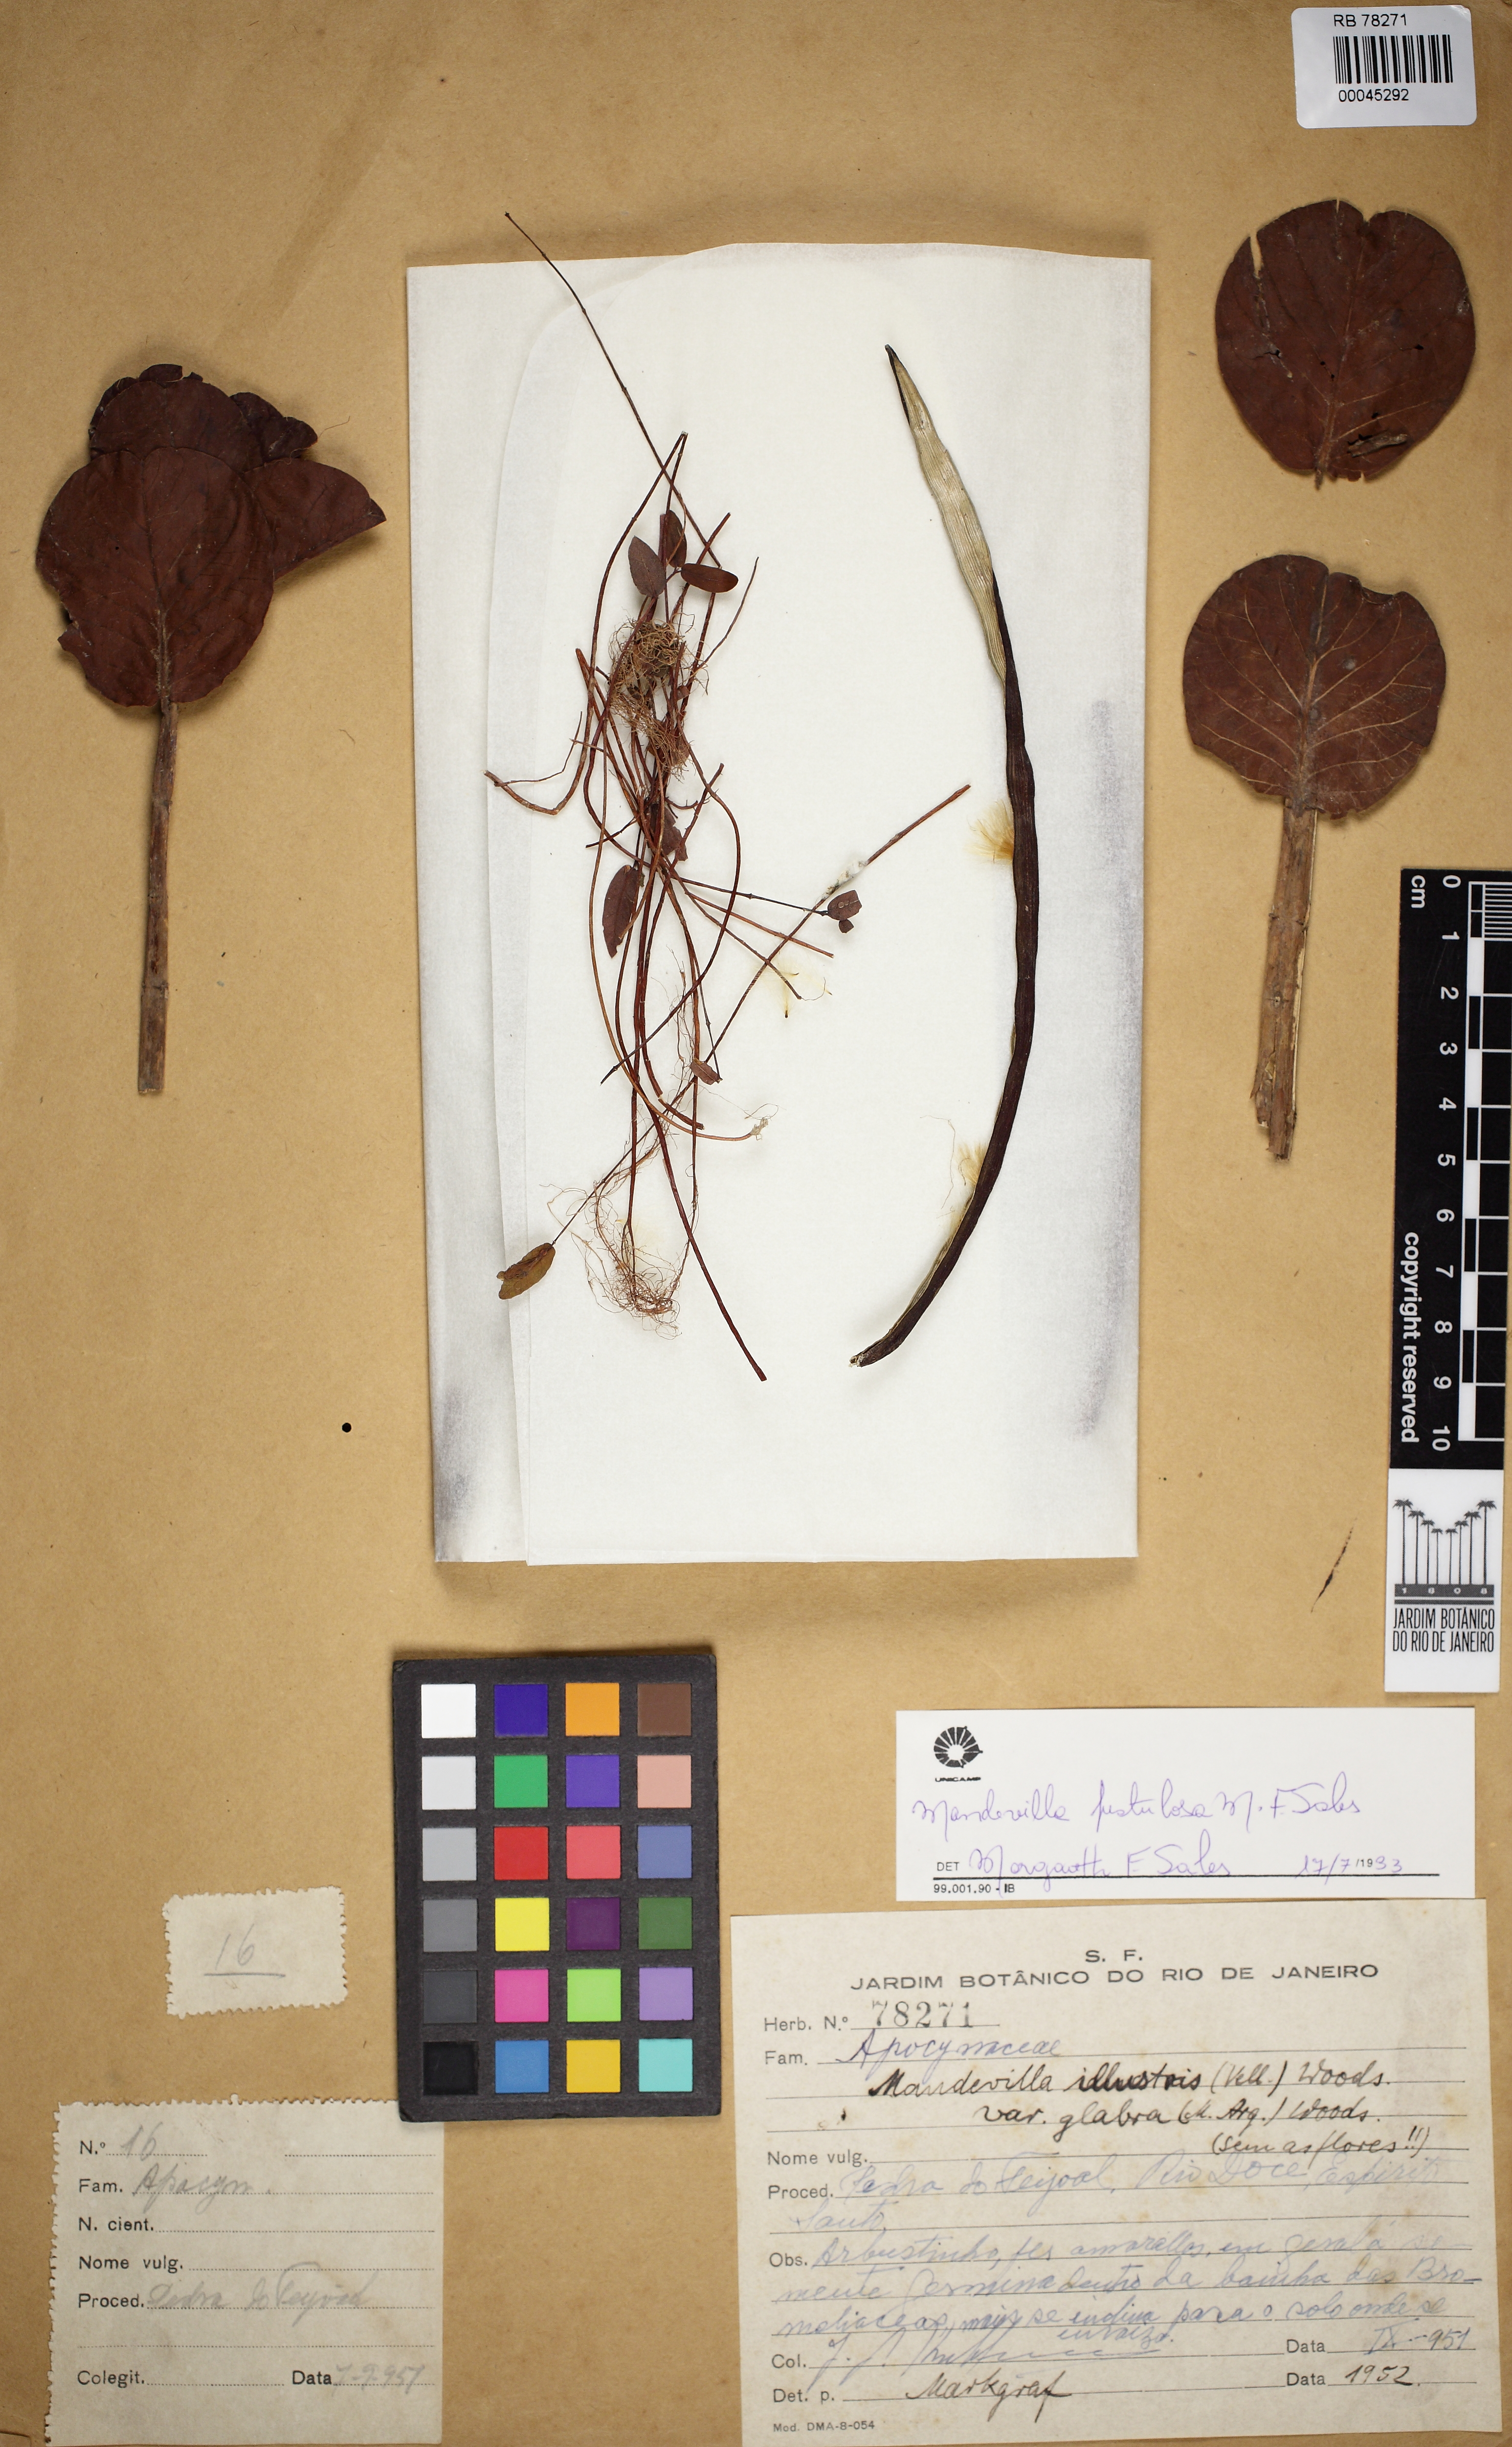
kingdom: Plantae
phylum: Tracheophyta
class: Magnoliopsida
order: Gentianales
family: Apocynaceae
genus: Mandevilla
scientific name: Mandevilla fistulosa
